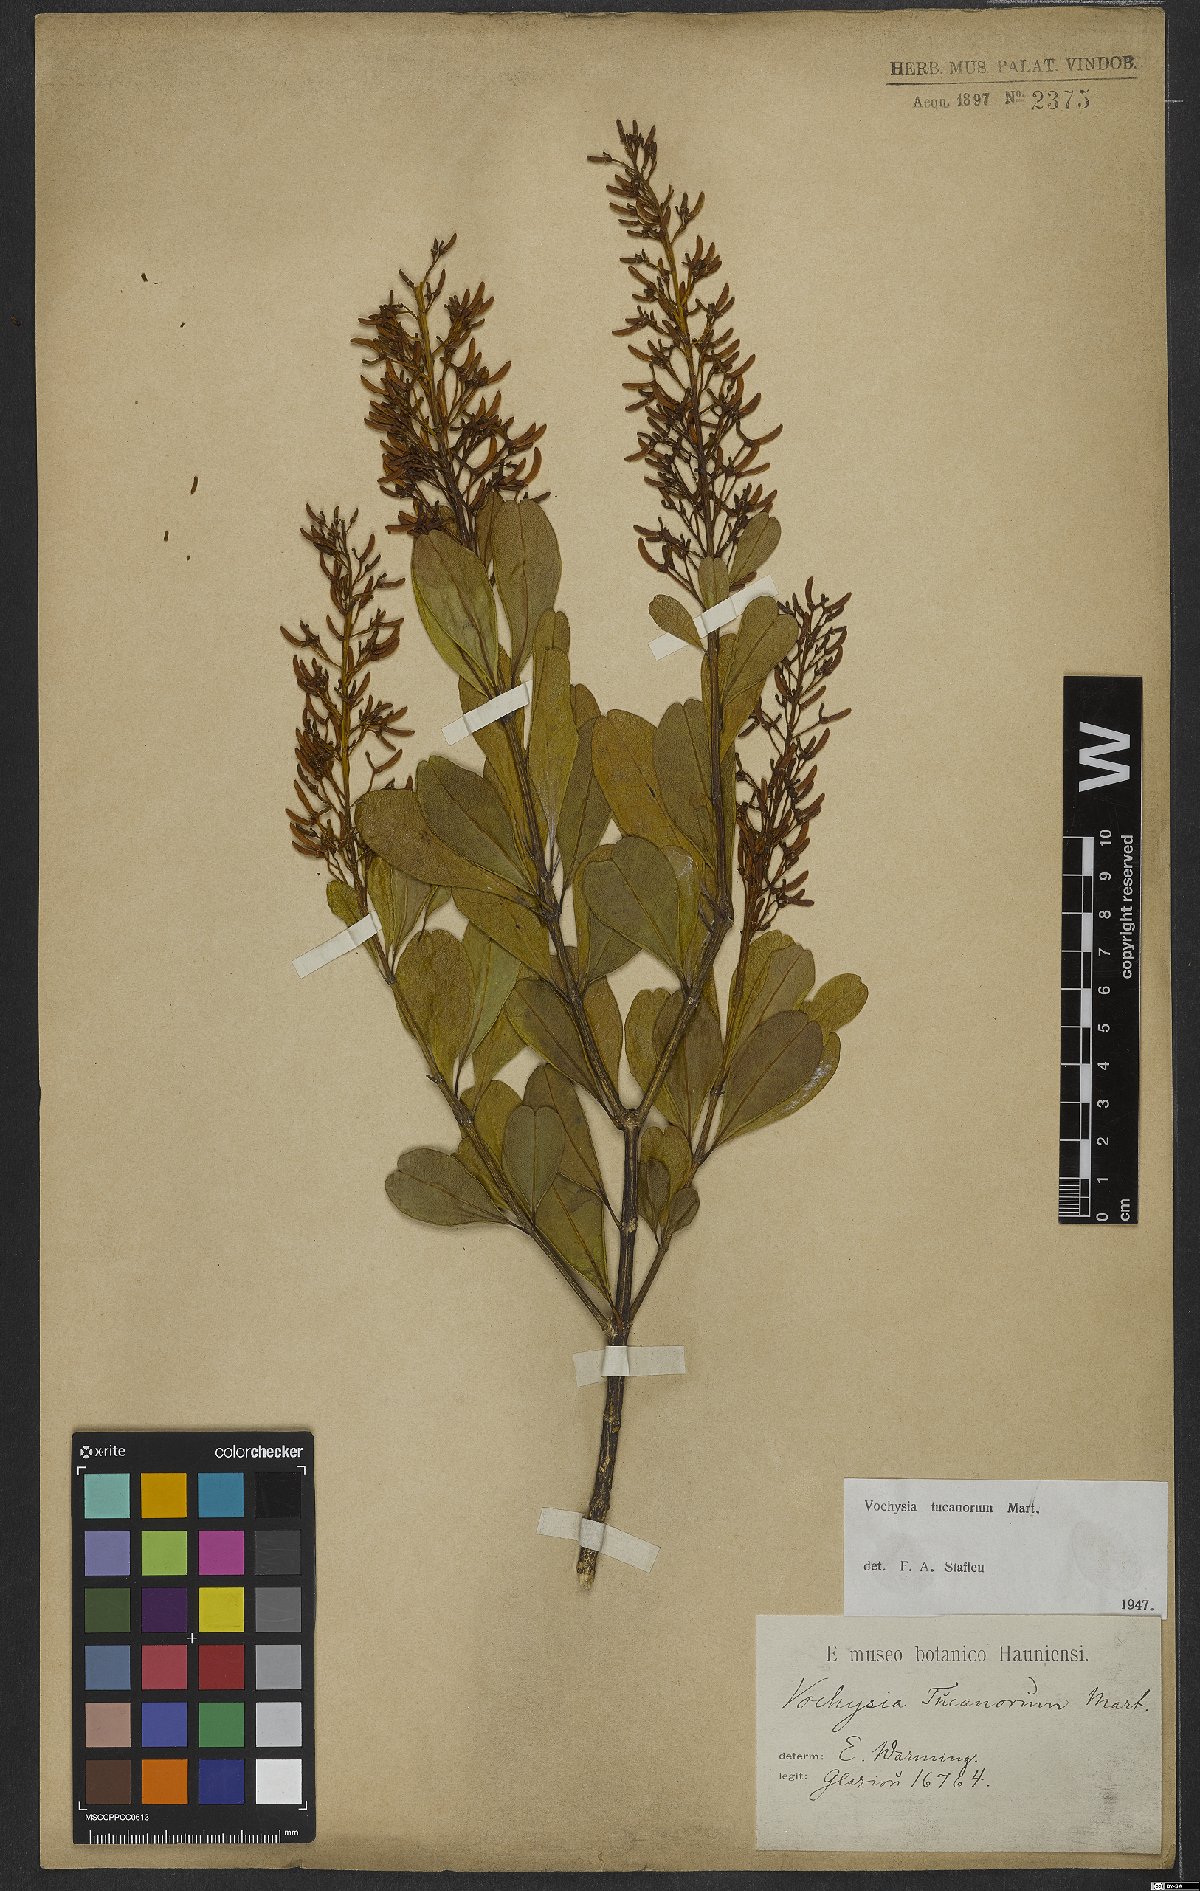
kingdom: Plantae
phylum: Tracheophyta
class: Magnoliopsida
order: Myrtales
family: Vochysiaceae
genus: Vochysia
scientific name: Vochysia tucanorum
